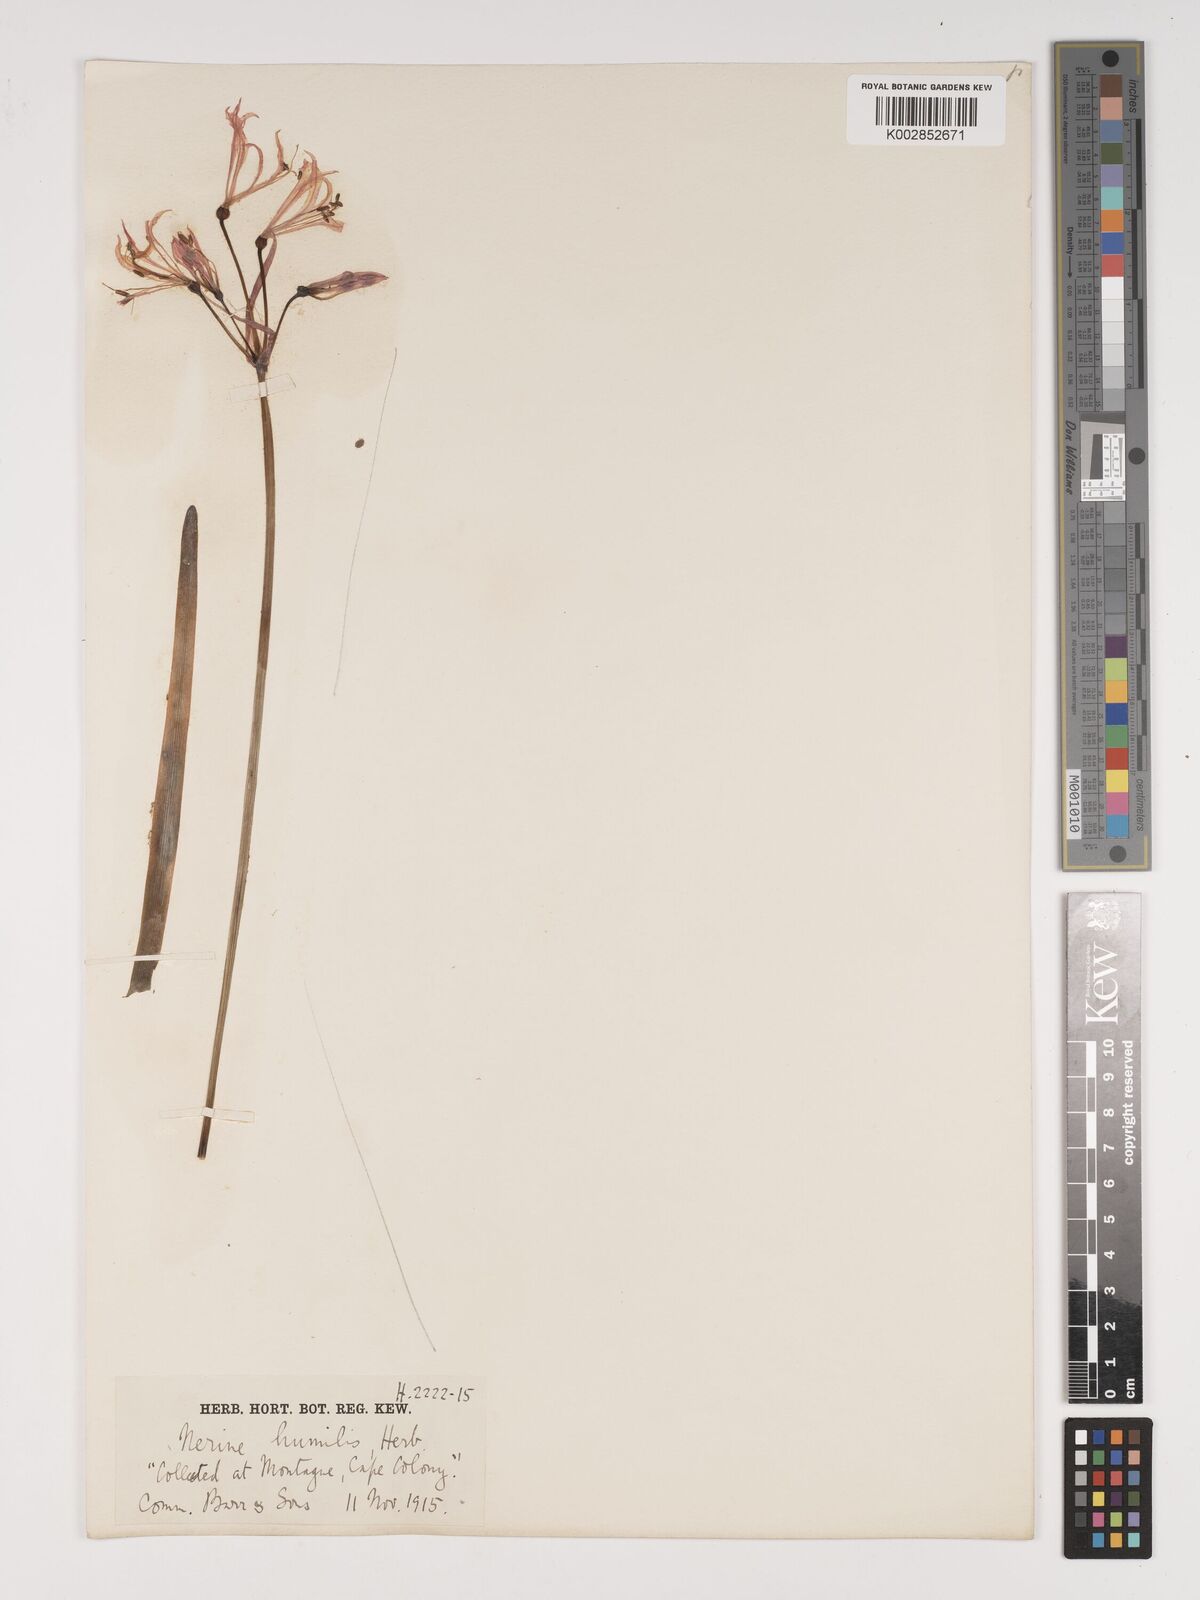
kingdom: Plantae
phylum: Tracheophyta
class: Liliopsida
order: Asparagales
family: Amaryllidaceae
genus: Nerine
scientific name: Nerine humilis
